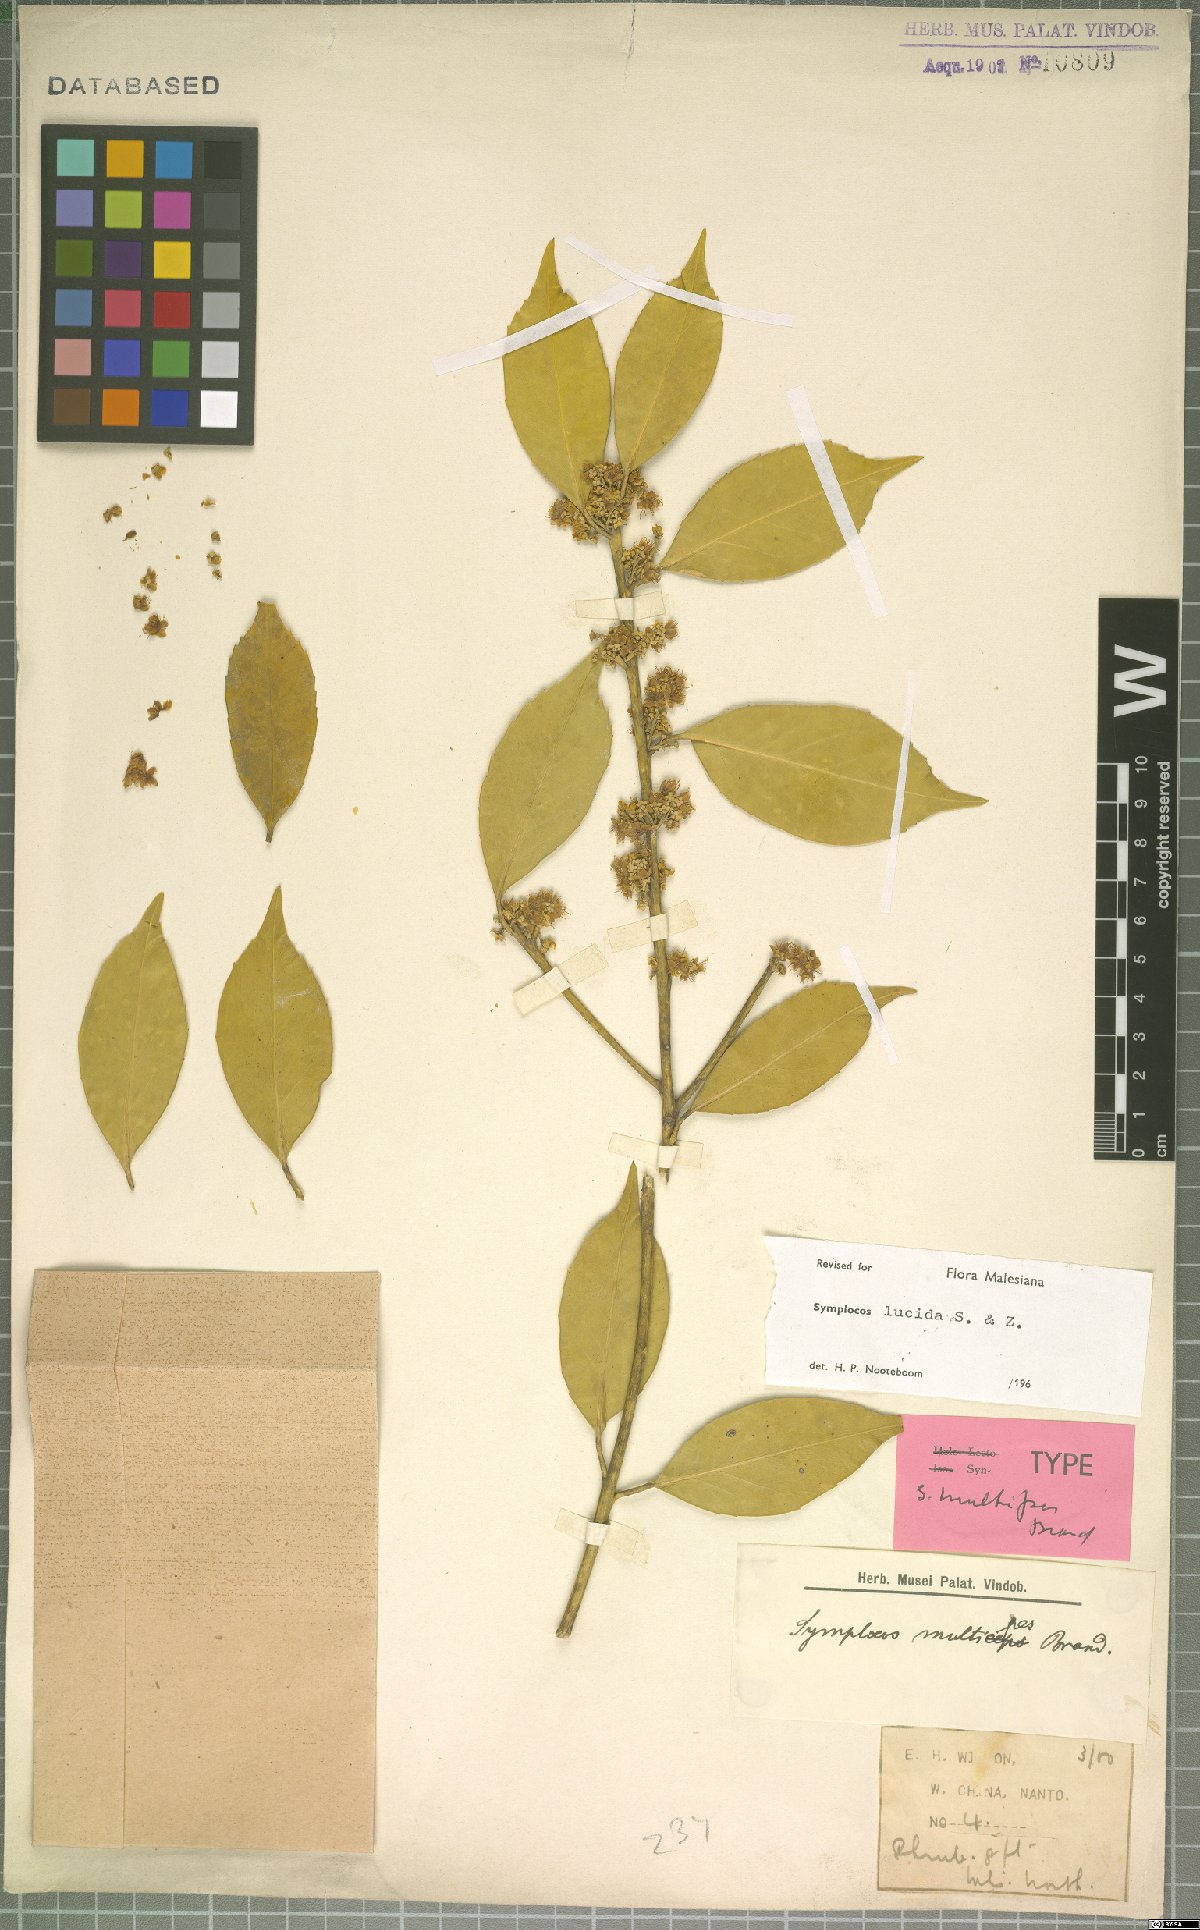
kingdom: Plantae
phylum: Tracheophyta
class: Magnoliopsida
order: Ericales
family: Symplocaceae
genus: Symplocos
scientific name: Symplocos nakaharae
